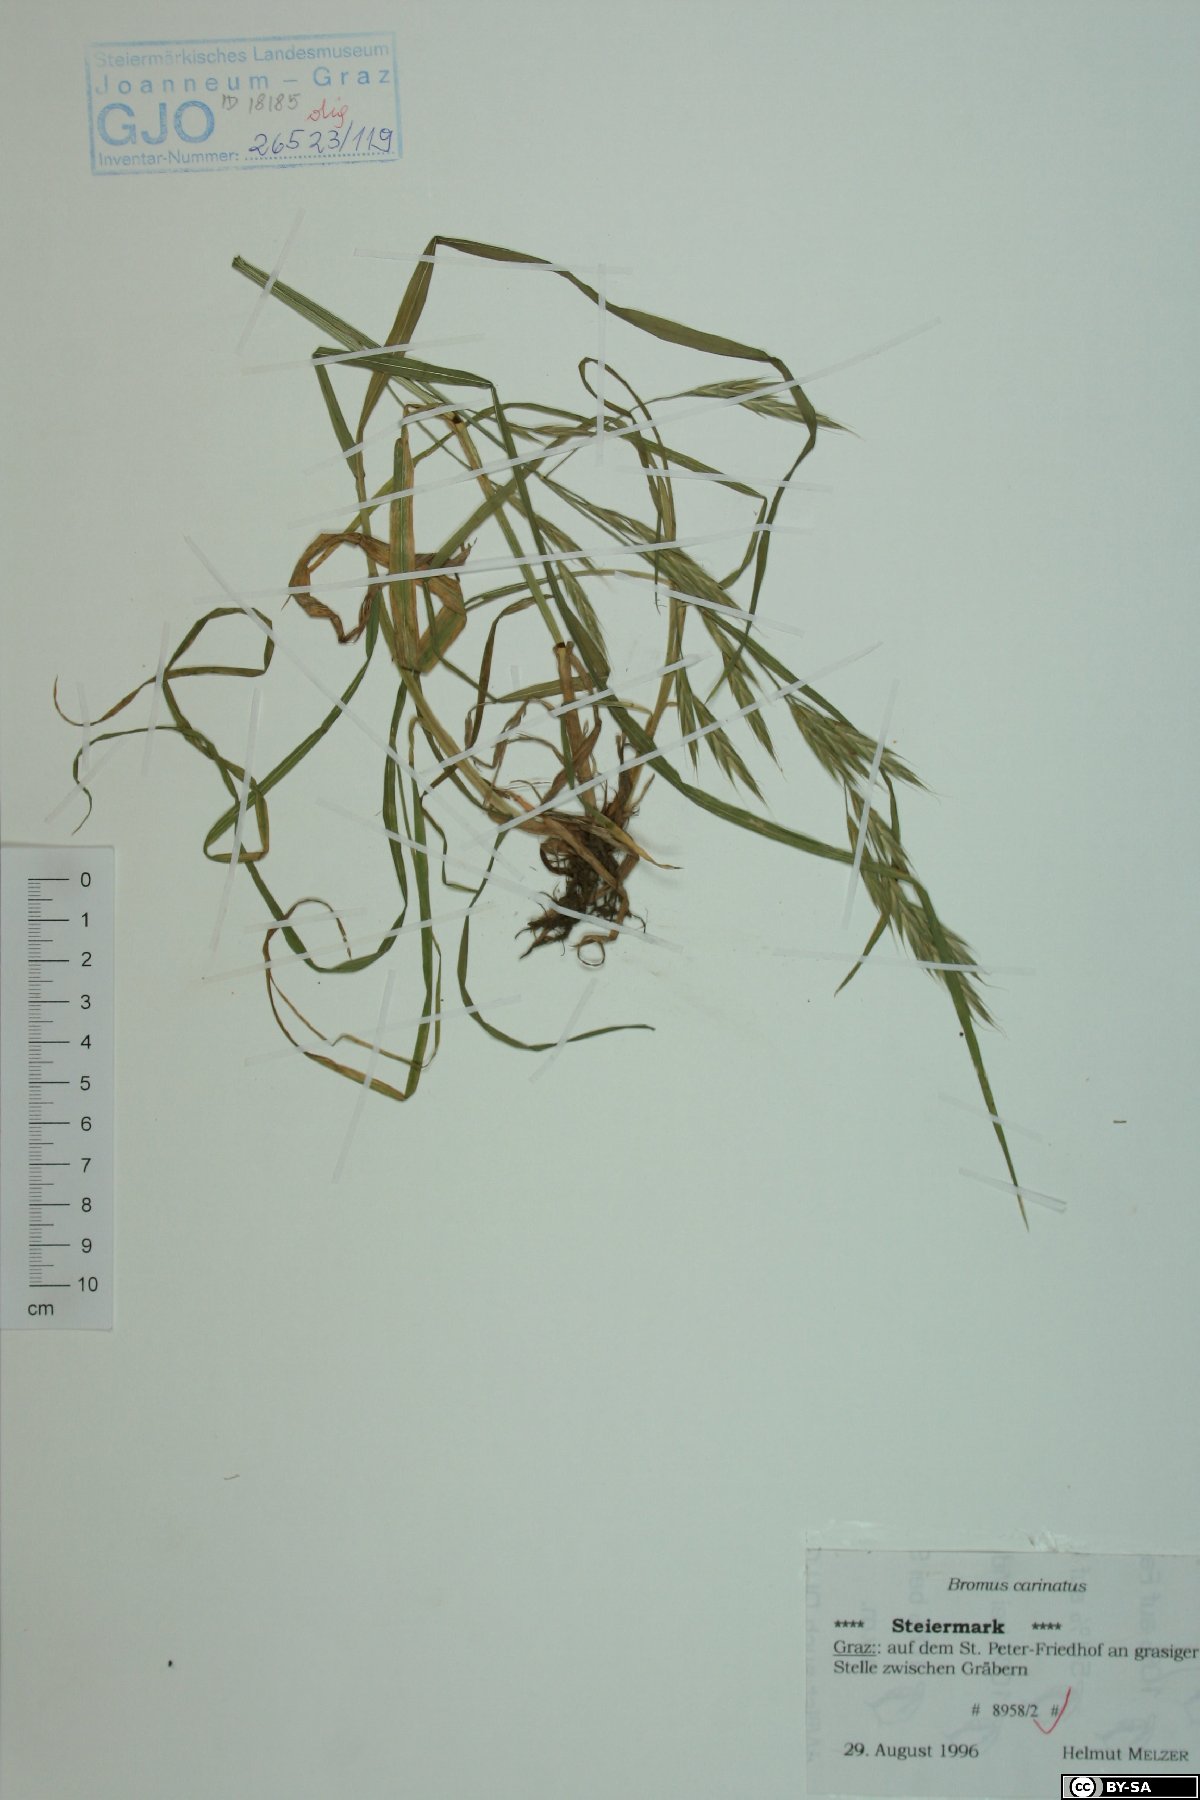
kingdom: Plantae
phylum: Tracheophyta
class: Liliopsida
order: Poales
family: Poaceae
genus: Bromus
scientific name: Bromus carinatus
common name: Mountain brome
